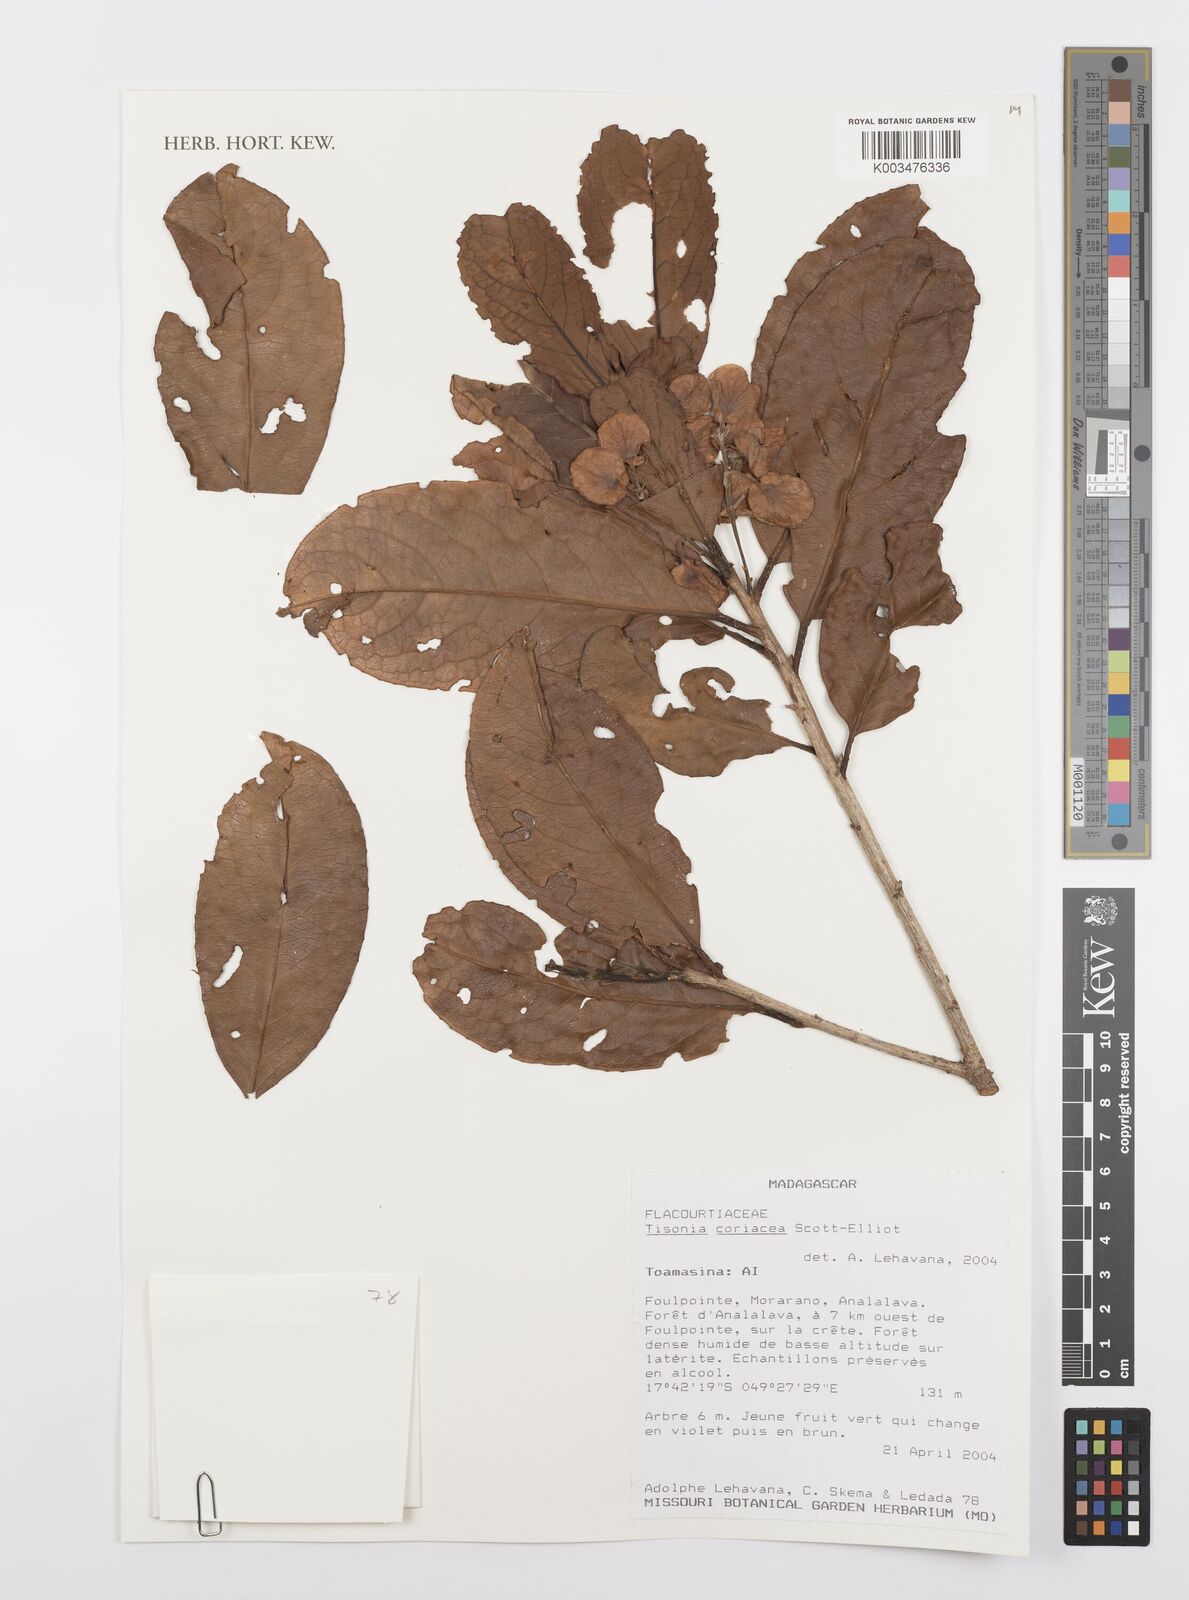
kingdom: Plantae
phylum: Tracheophyta
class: Magnoliopsida
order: Malpighiales
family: Salicaceae
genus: Tisonia
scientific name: Tisonia coriacea
